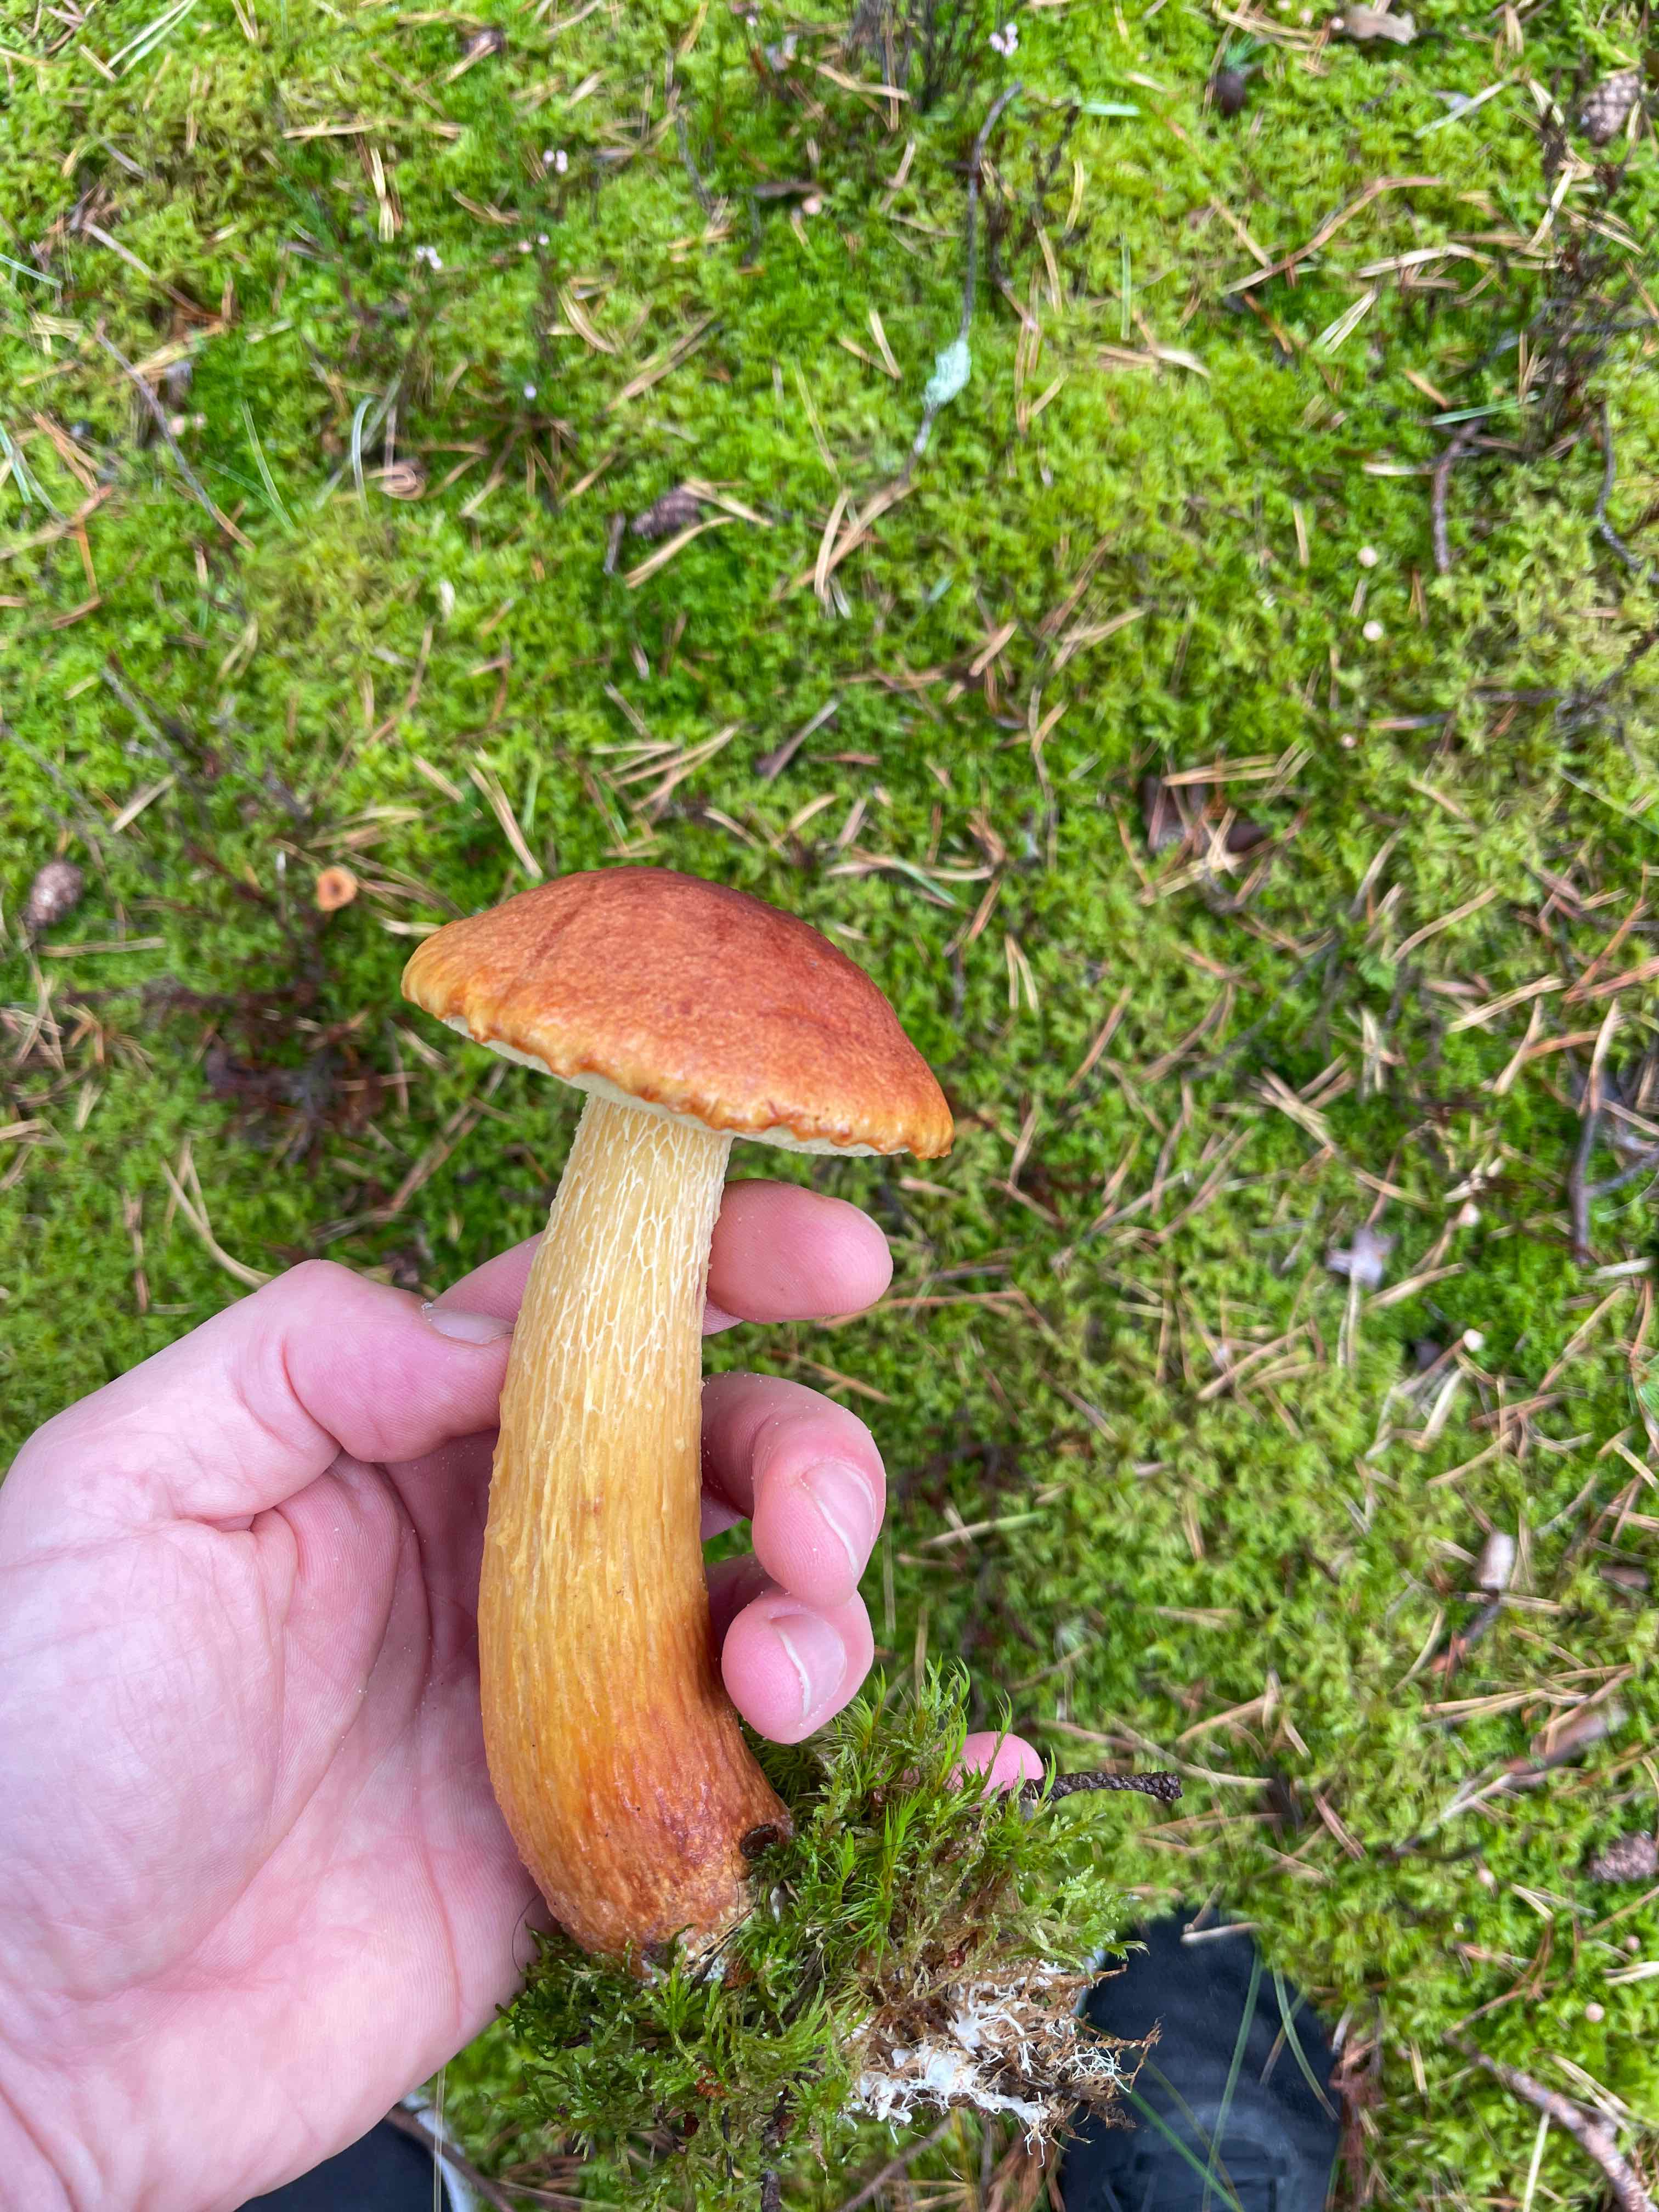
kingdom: Fungi
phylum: Basidiomycota
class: Agaricomycetes
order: Boletales
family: Boletaceae
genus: Aureoboletus
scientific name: Aureoboletus projectellus
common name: ribbestokket rørhat
